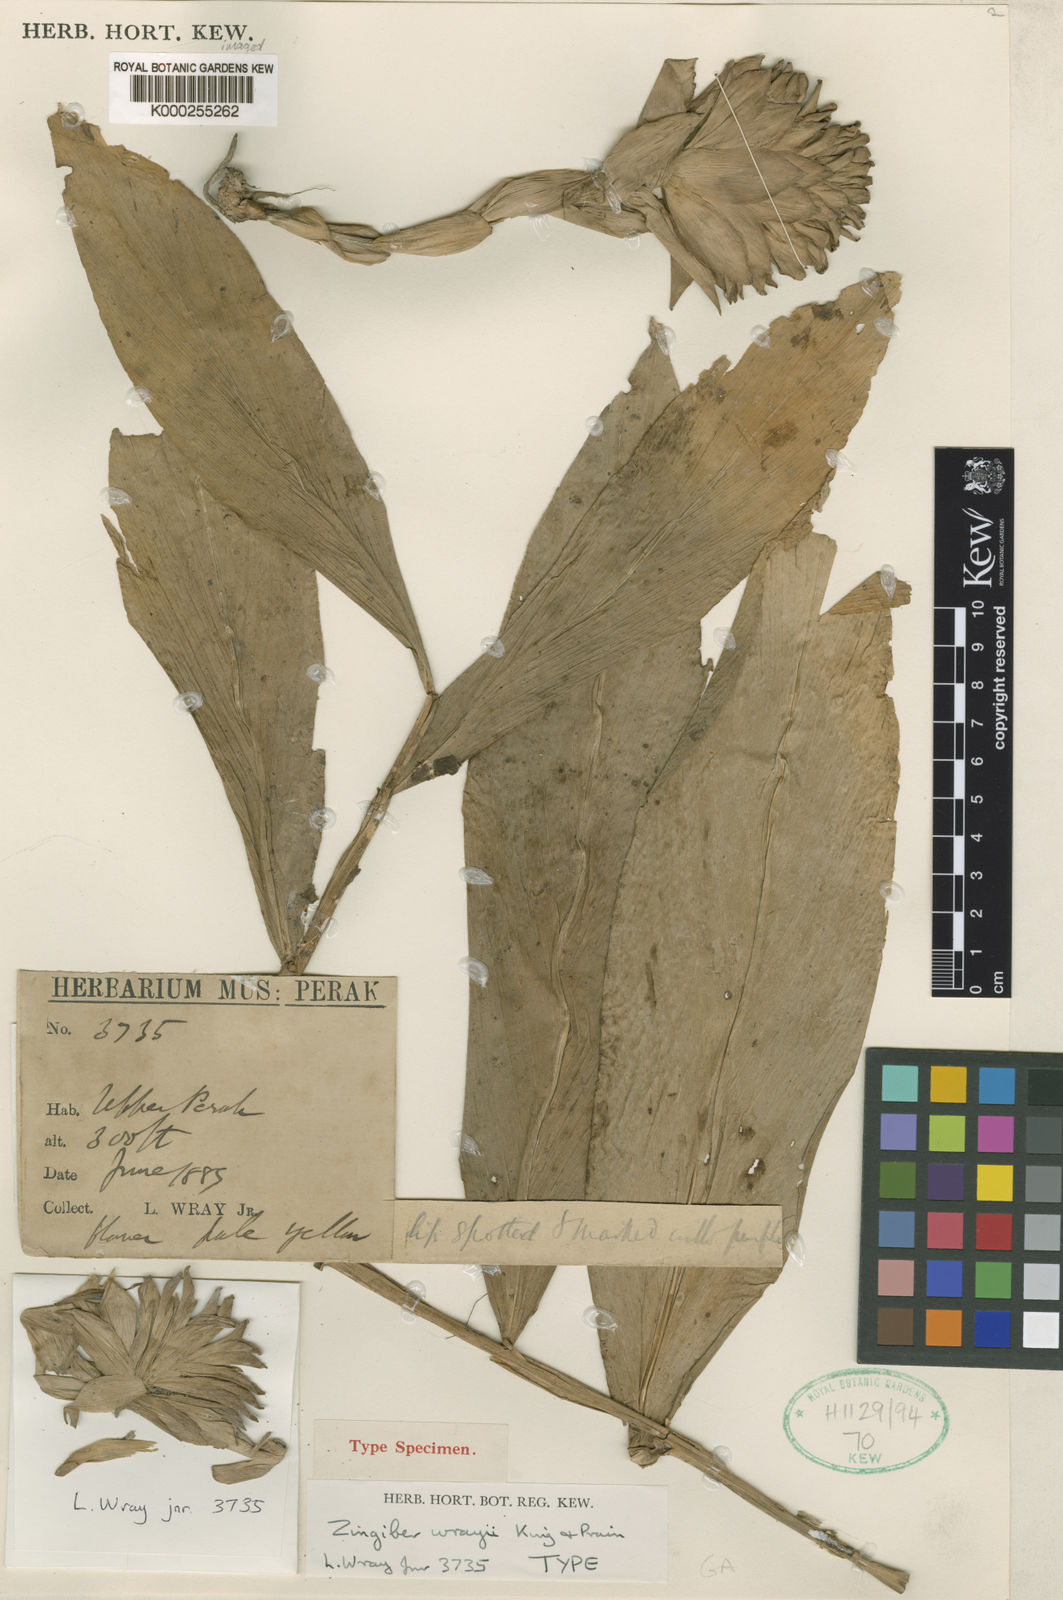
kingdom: Plantae
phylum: Tracheophyta
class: Liliopsida
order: Zingiberales
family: Zingiberaceae
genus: Zingiber
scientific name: Zingiber wrayi
